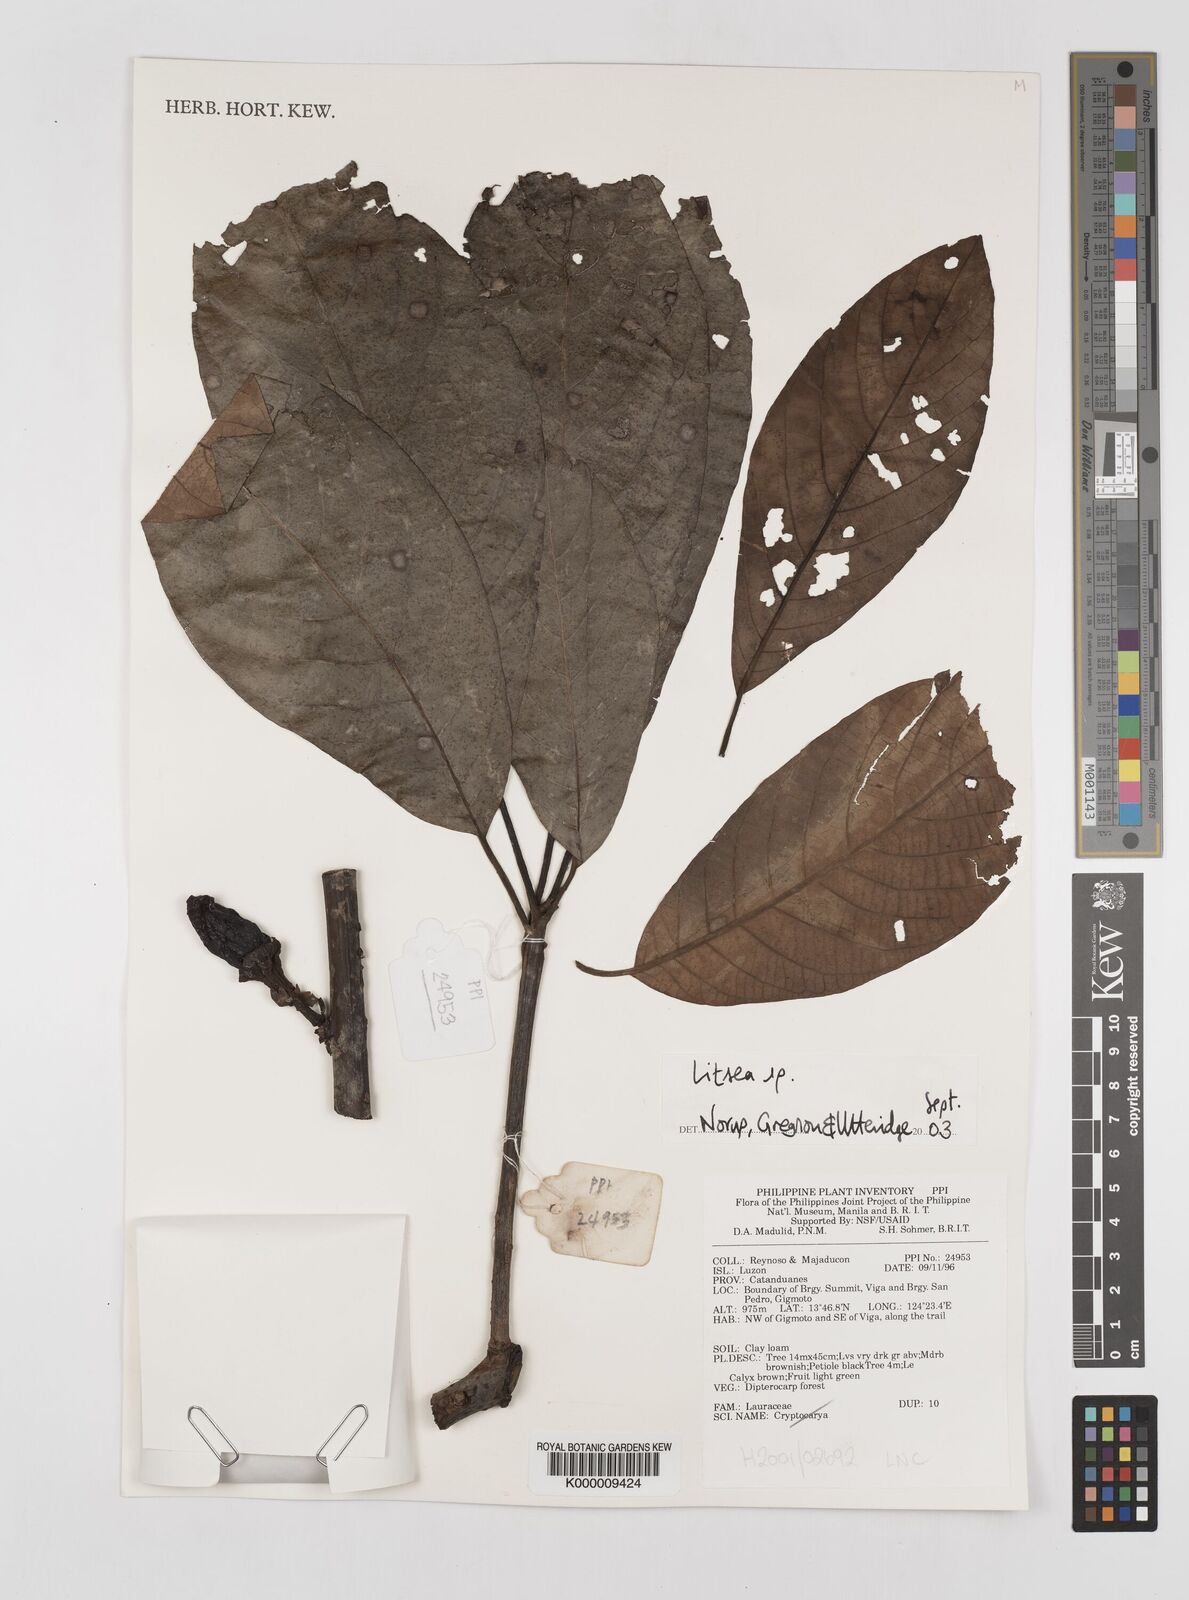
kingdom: Plantae
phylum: Tracheophyta
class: Magnoliopsida
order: Laurales
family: Lauraceae
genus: Litsea
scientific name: Litsea
